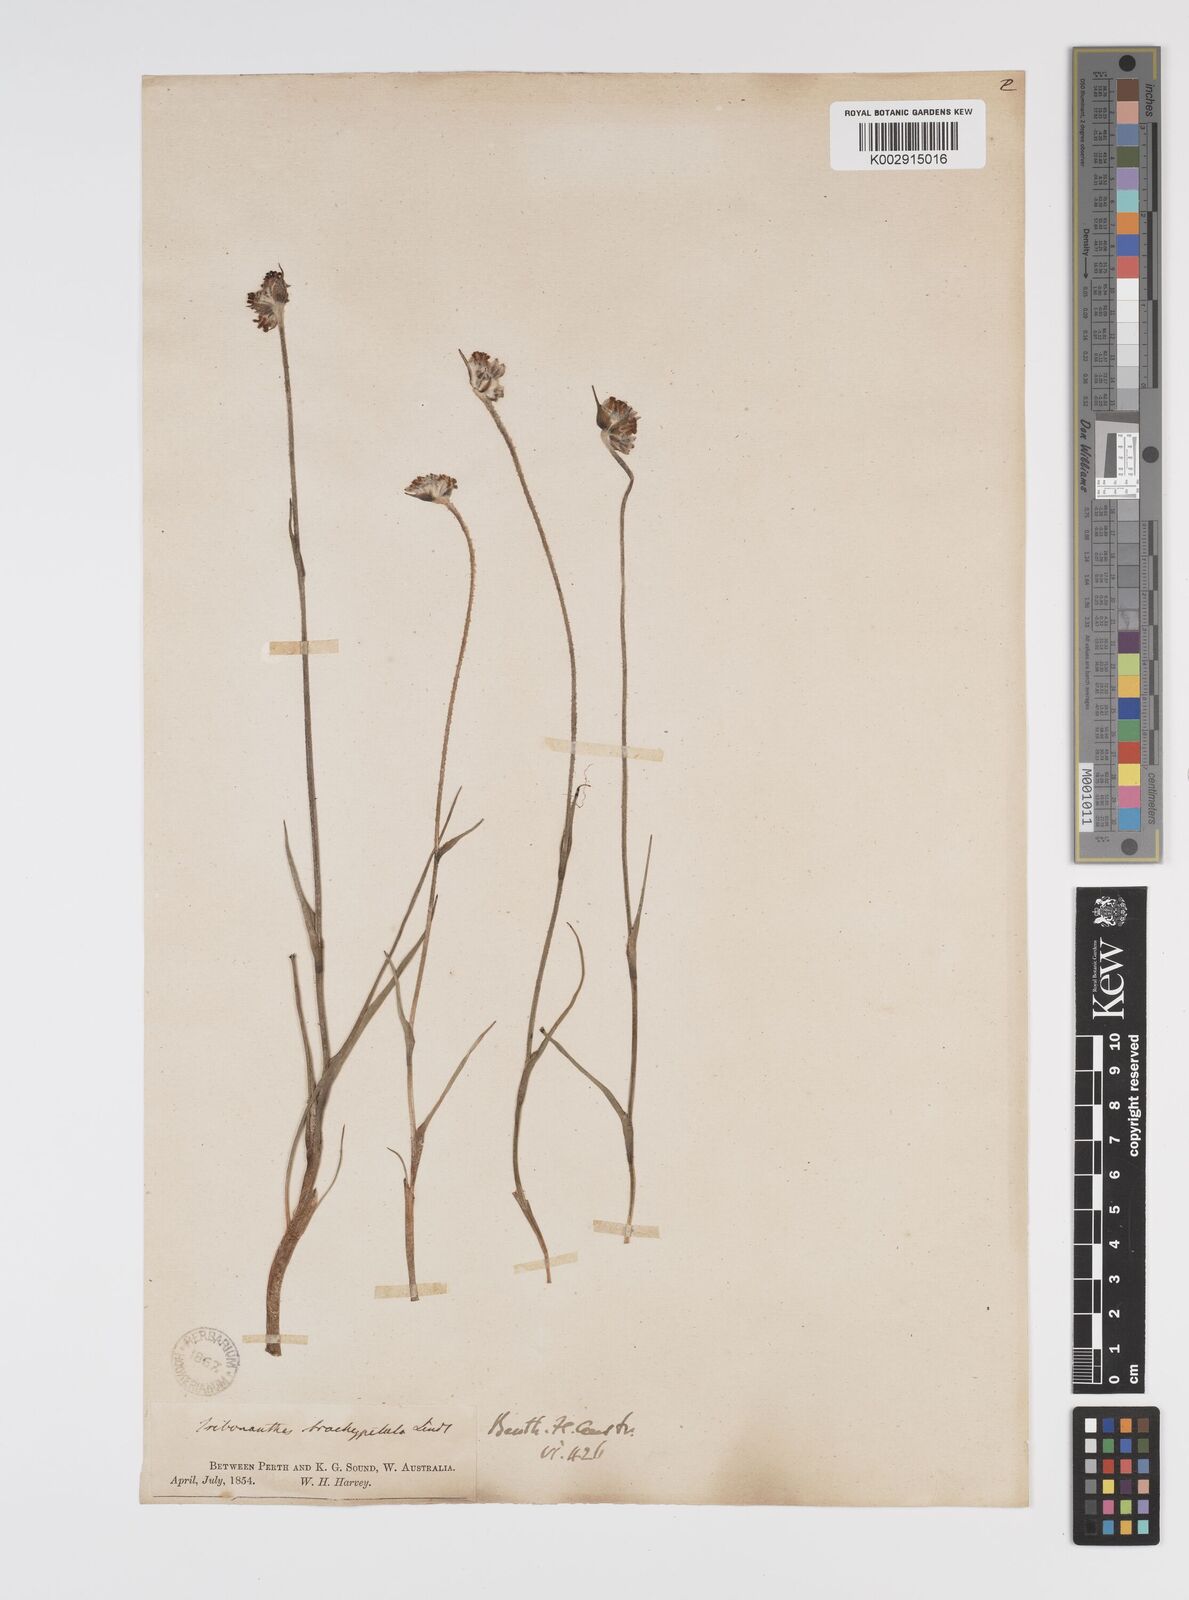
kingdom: Plantae
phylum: Tracheophyta
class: Liliopsida
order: Commelinales
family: Haemodoraceae
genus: Tribonanthes
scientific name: Tribonanthes brachypetala
